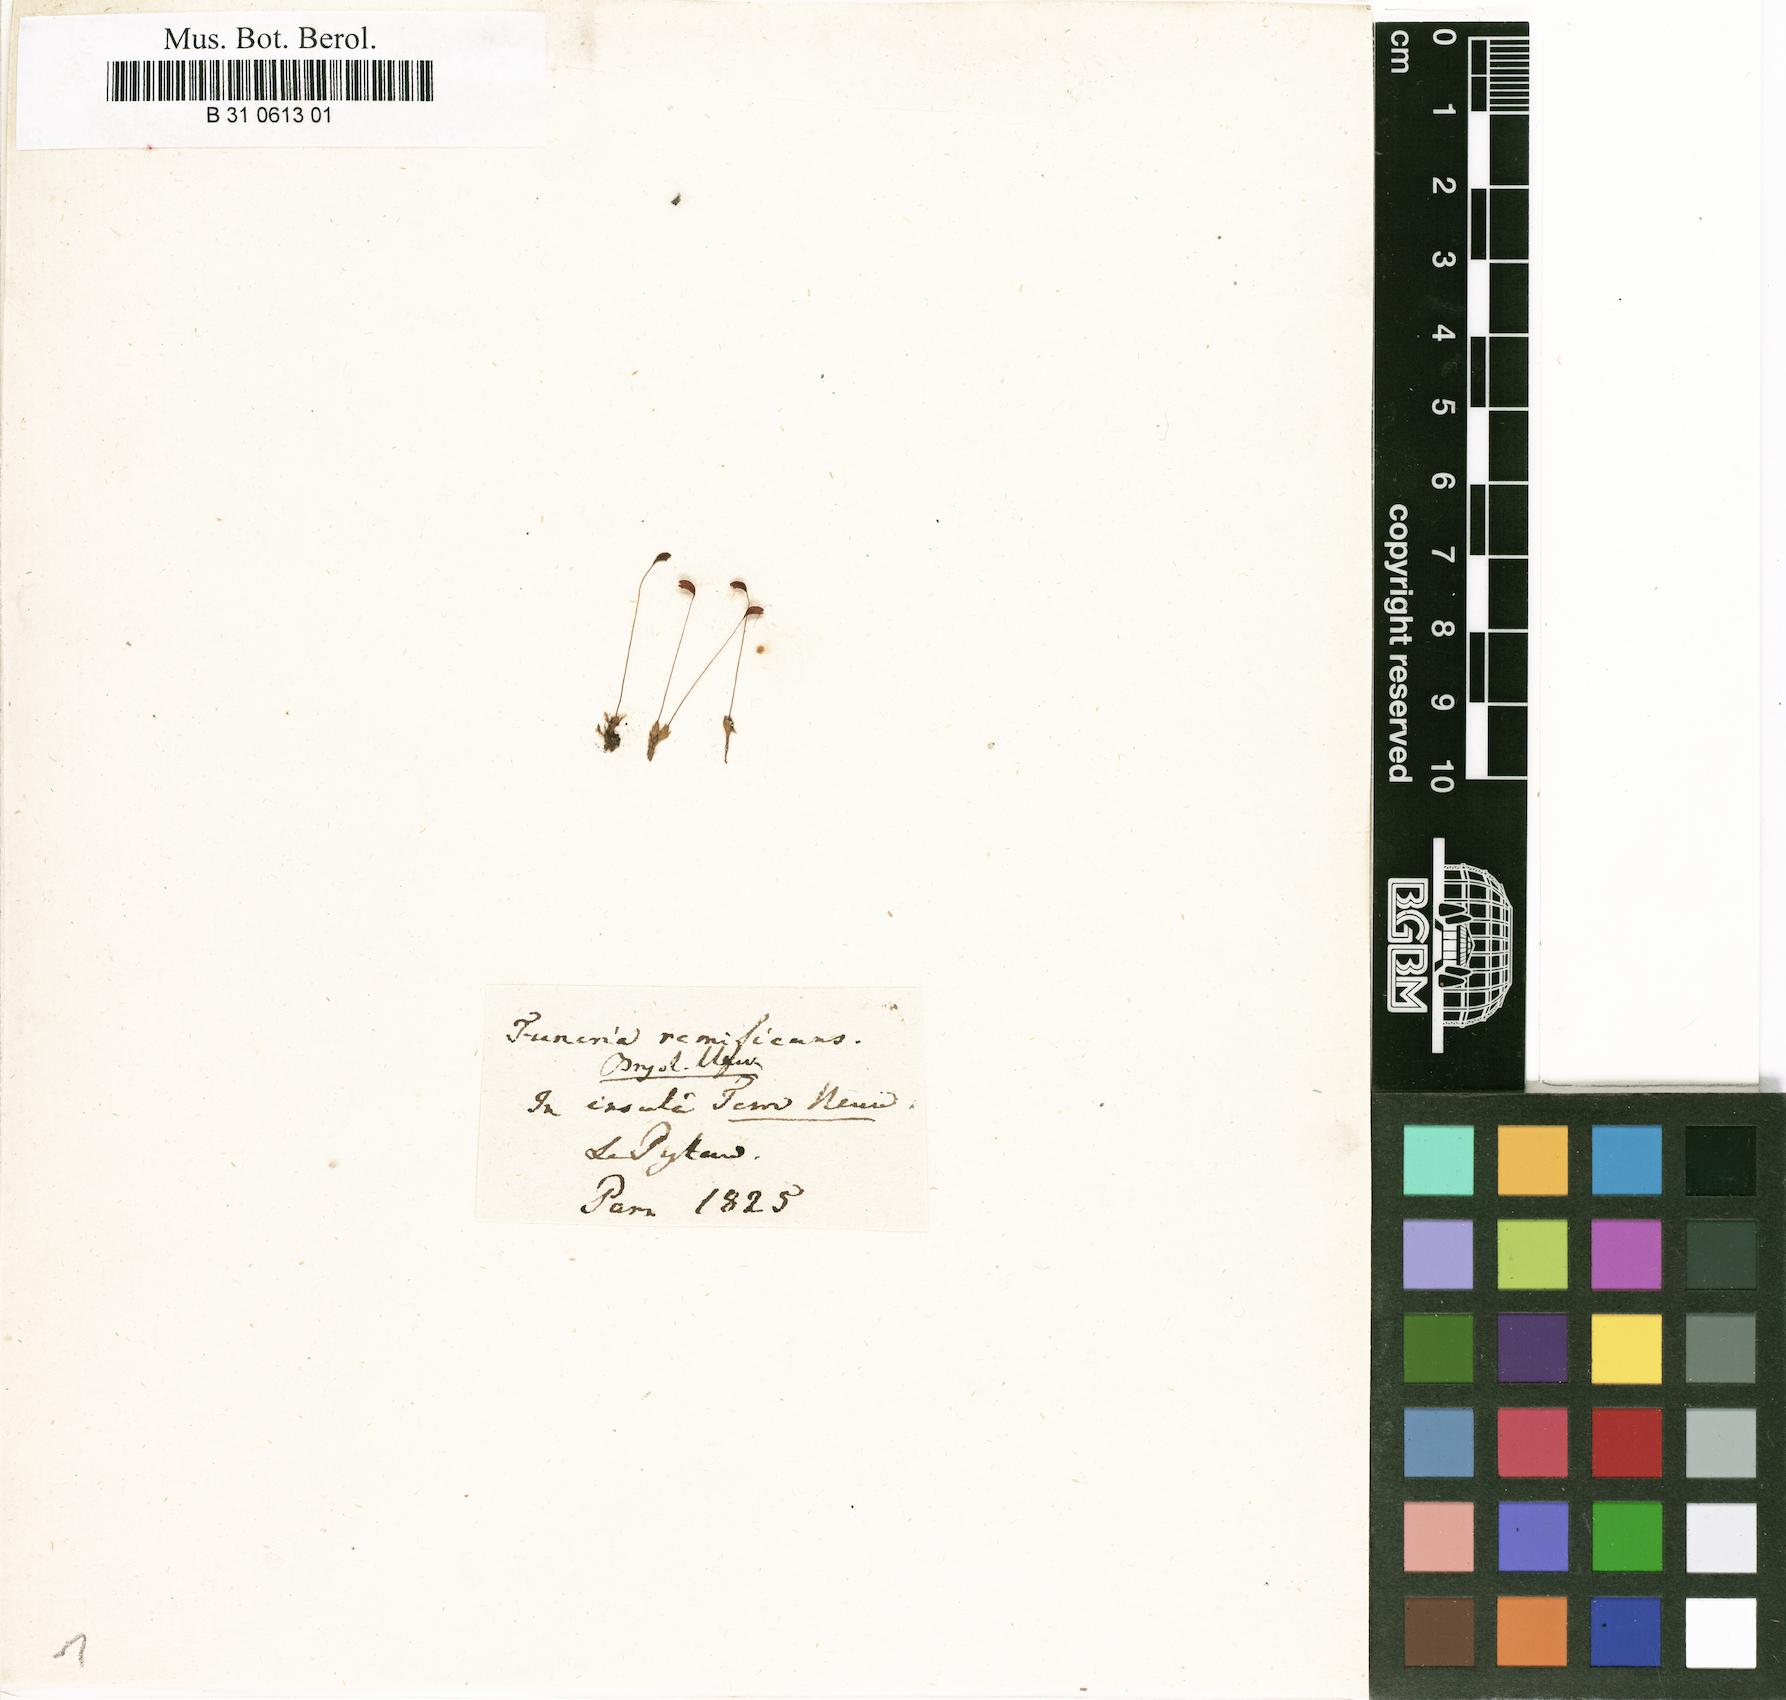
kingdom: Plantae
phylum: Bryophyta
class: Bryopsida
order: Funariales
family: Funariaceae
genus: Funaria
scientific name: Funaria hygrometrica
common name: Common cord moss
